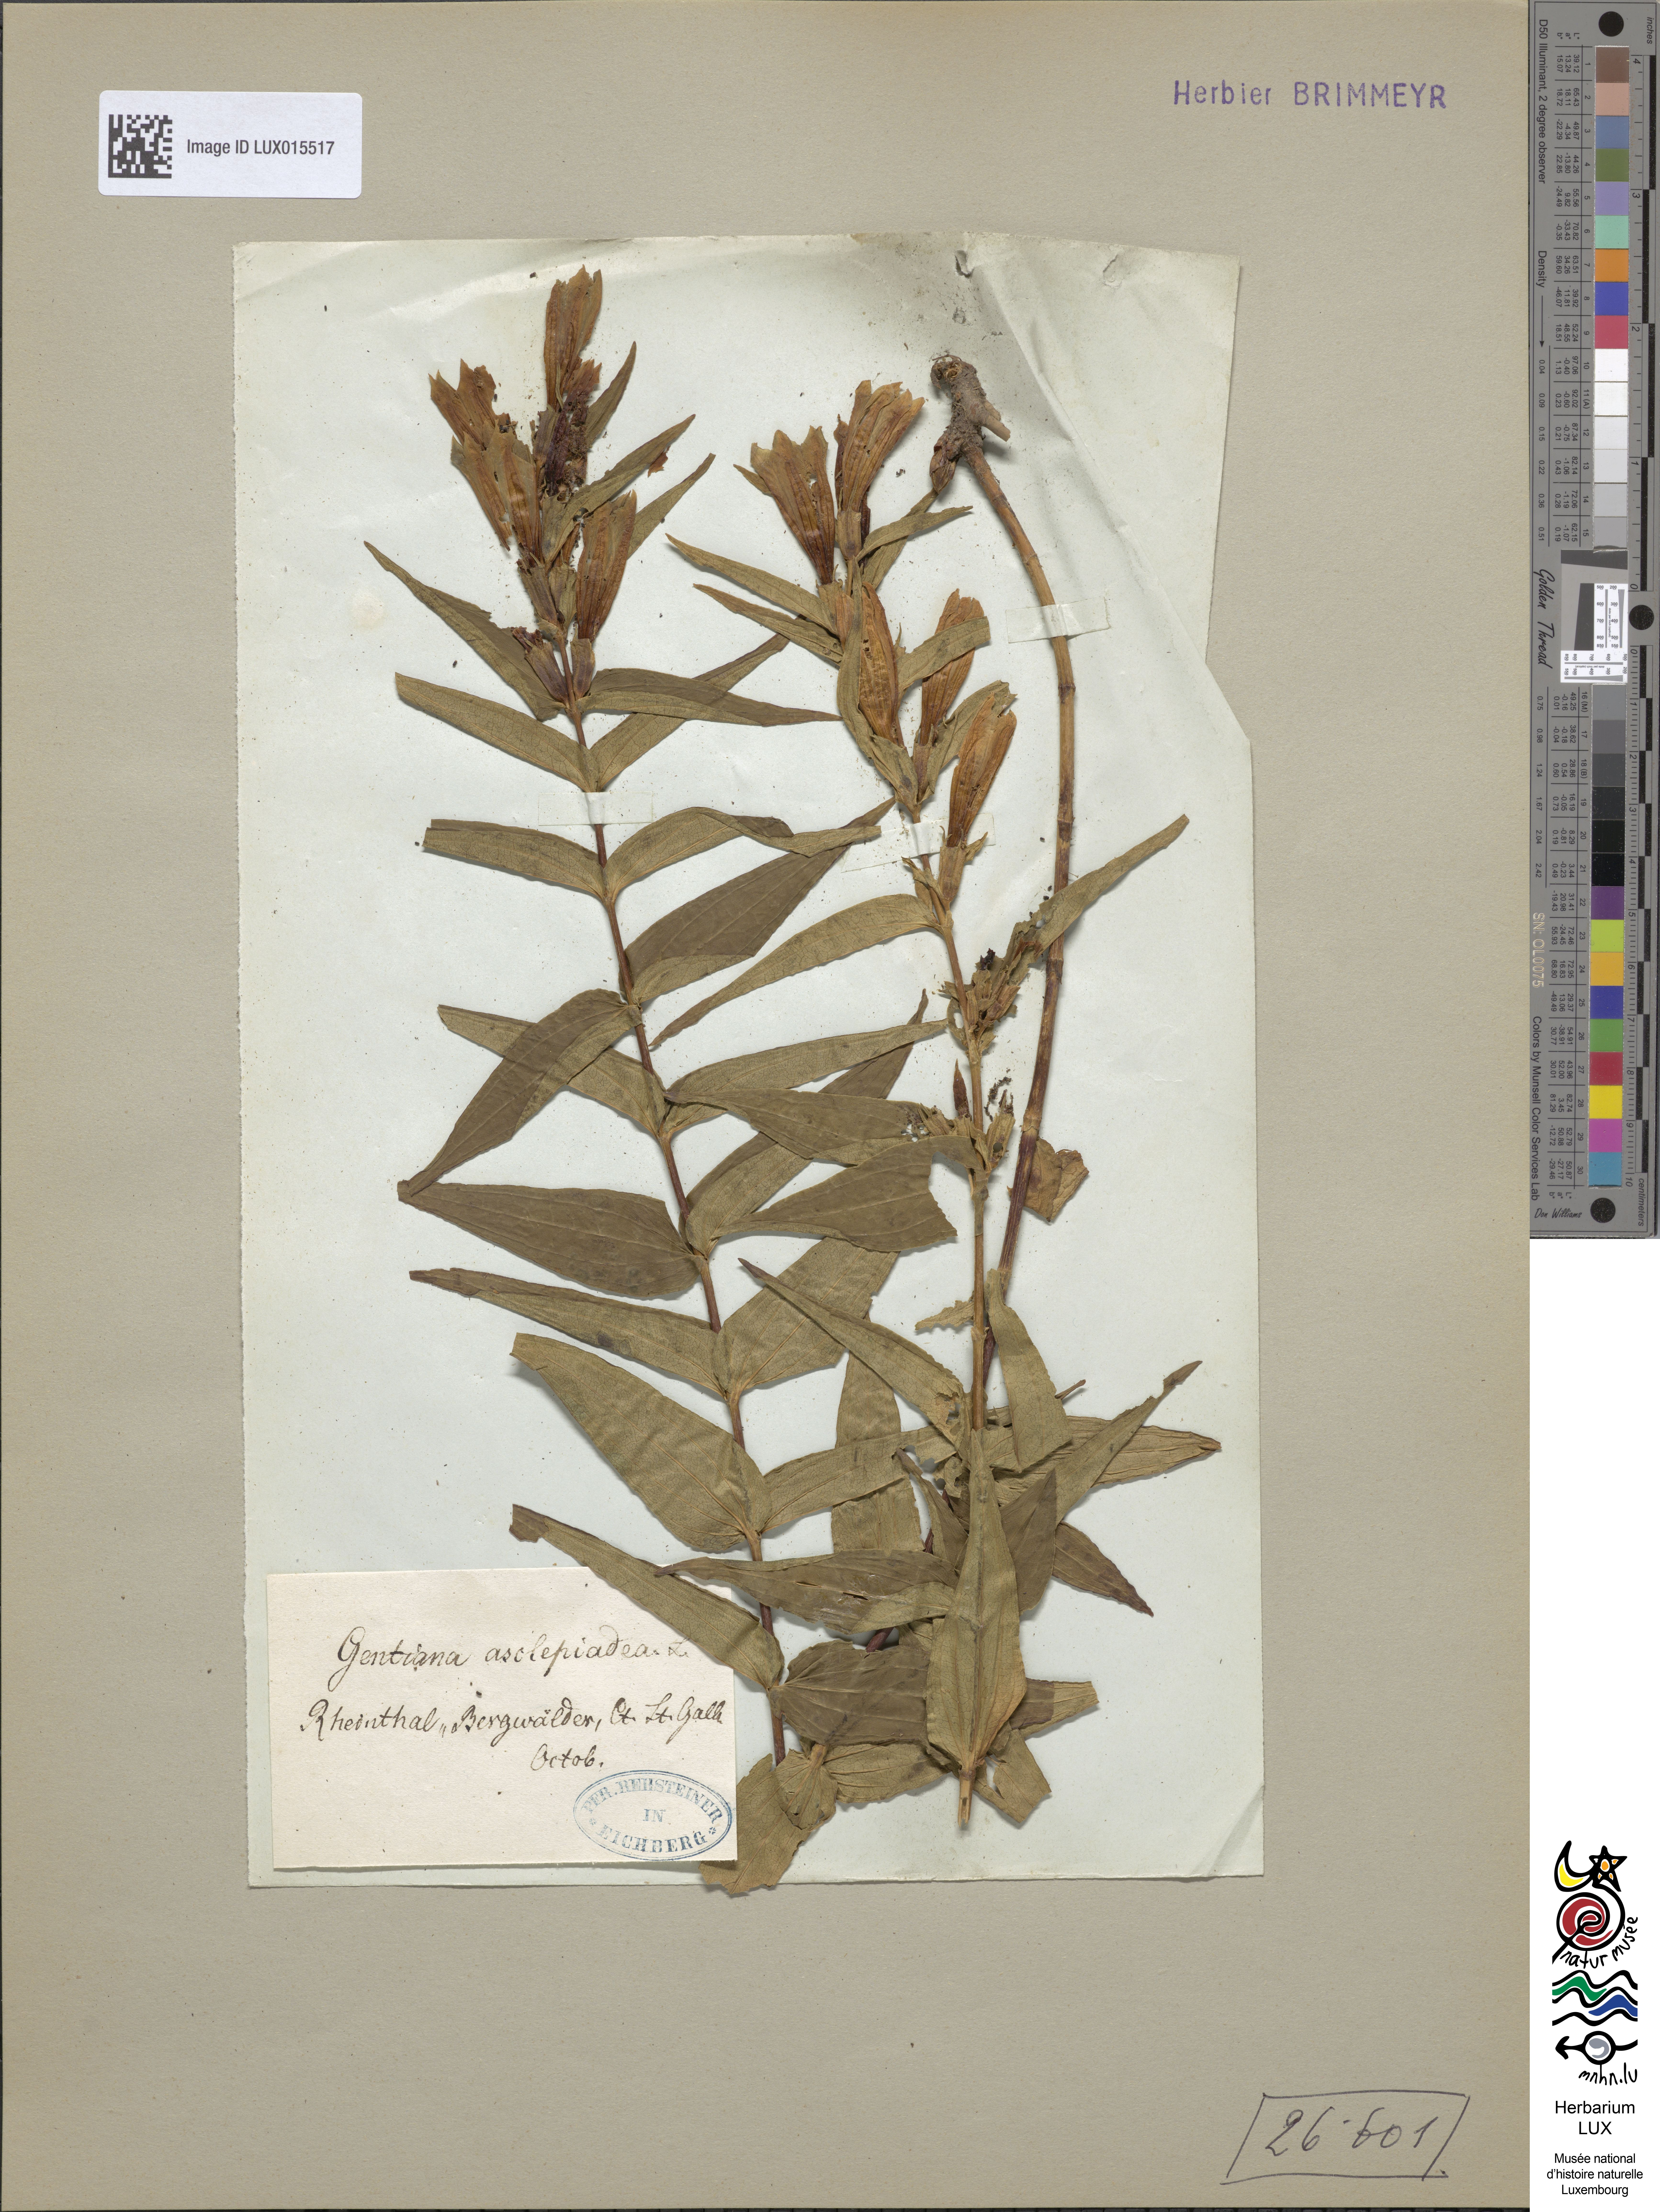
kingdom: Plantae
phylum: Tracheophyta
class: Magnoliopsida
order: Gentianales
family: Gentianaceae
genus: Gentiana
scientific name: Gentiana asclepiadea
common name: Willow gentian
